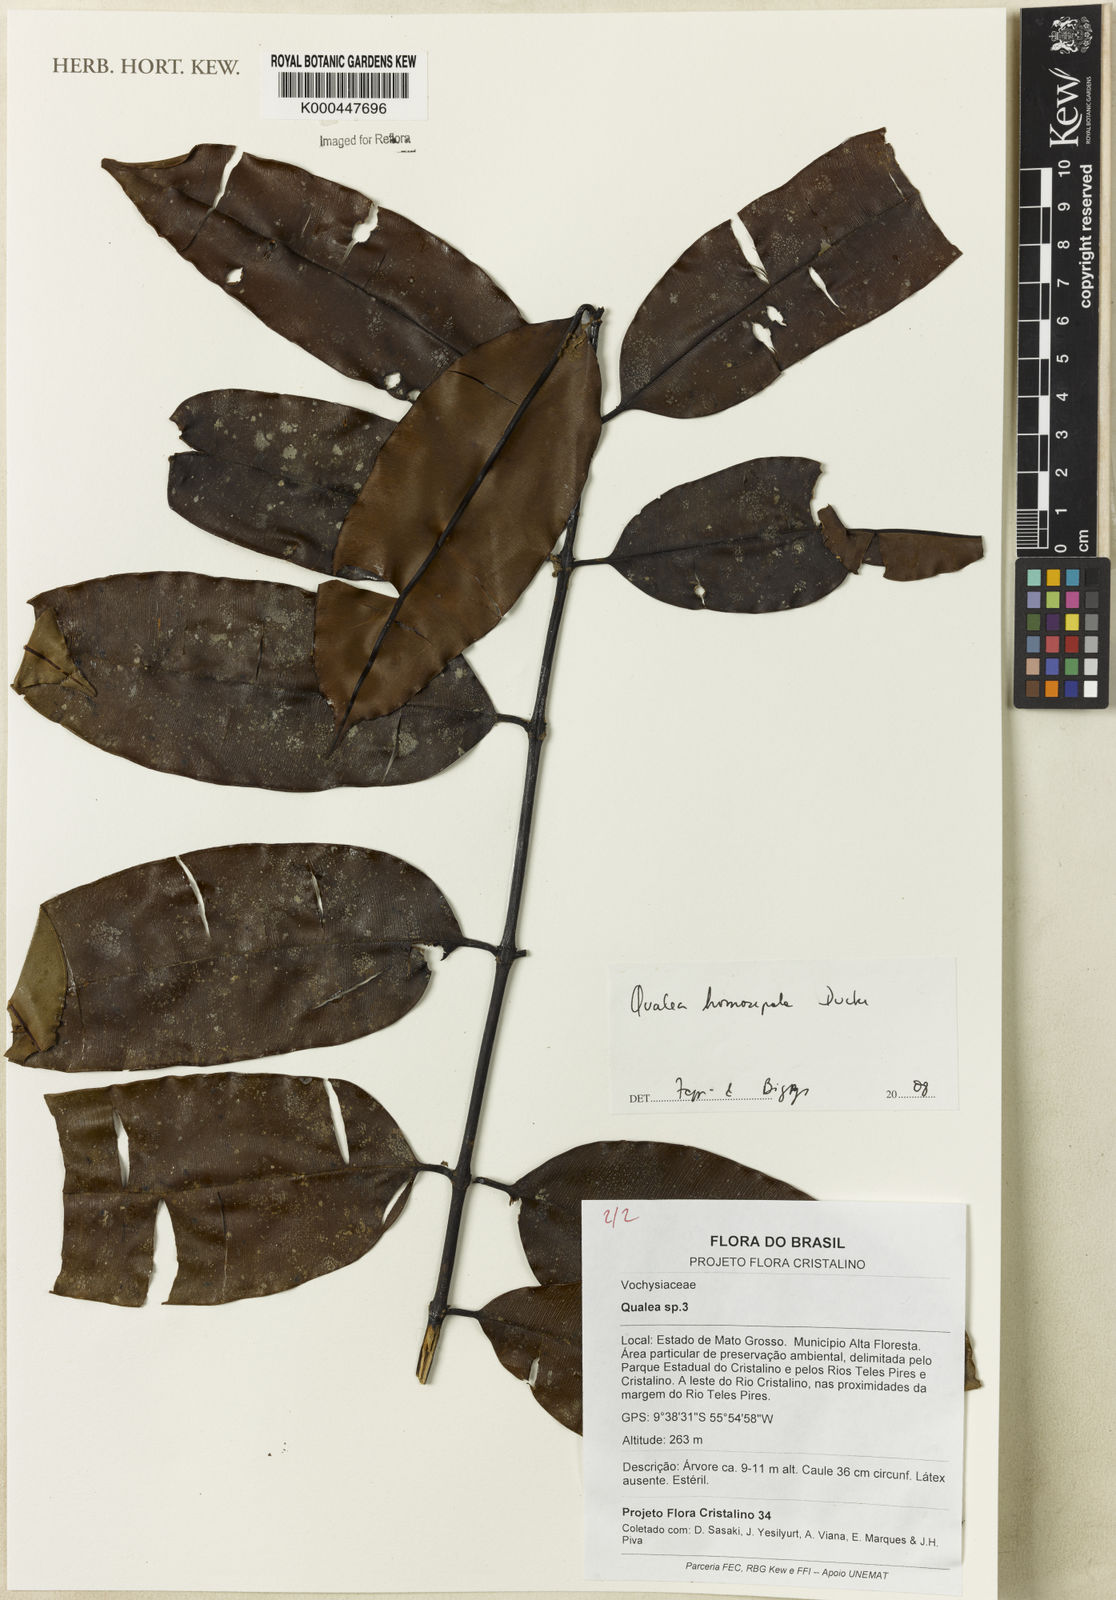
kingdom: Plantae
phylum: Tracheophyta
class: Magnoliopsida
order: Myrtales
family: Vochysiaceae
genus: Qualea
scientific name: Qualea homosepala
